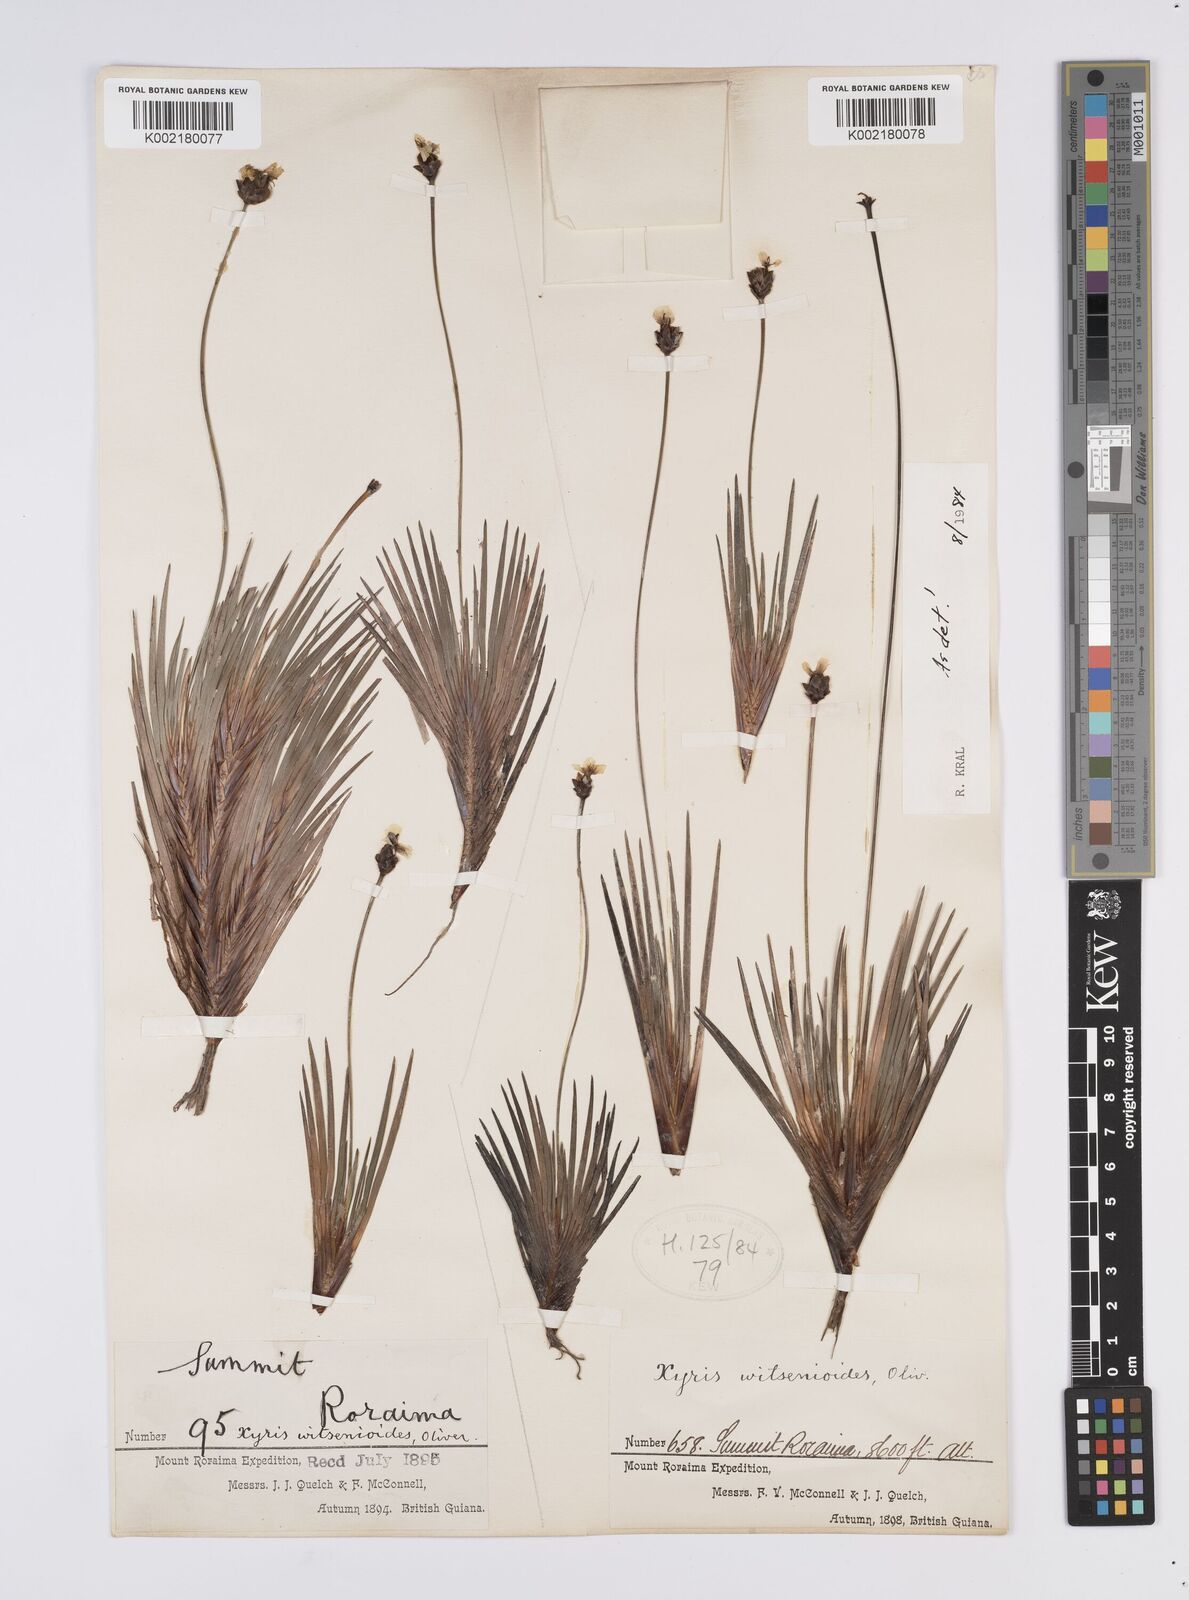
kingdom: Plantae
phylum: Tracheophyta
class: Liliopsida
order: Poales
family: Xyridaceae
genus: Xyris
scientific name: Xyris witsenioides
